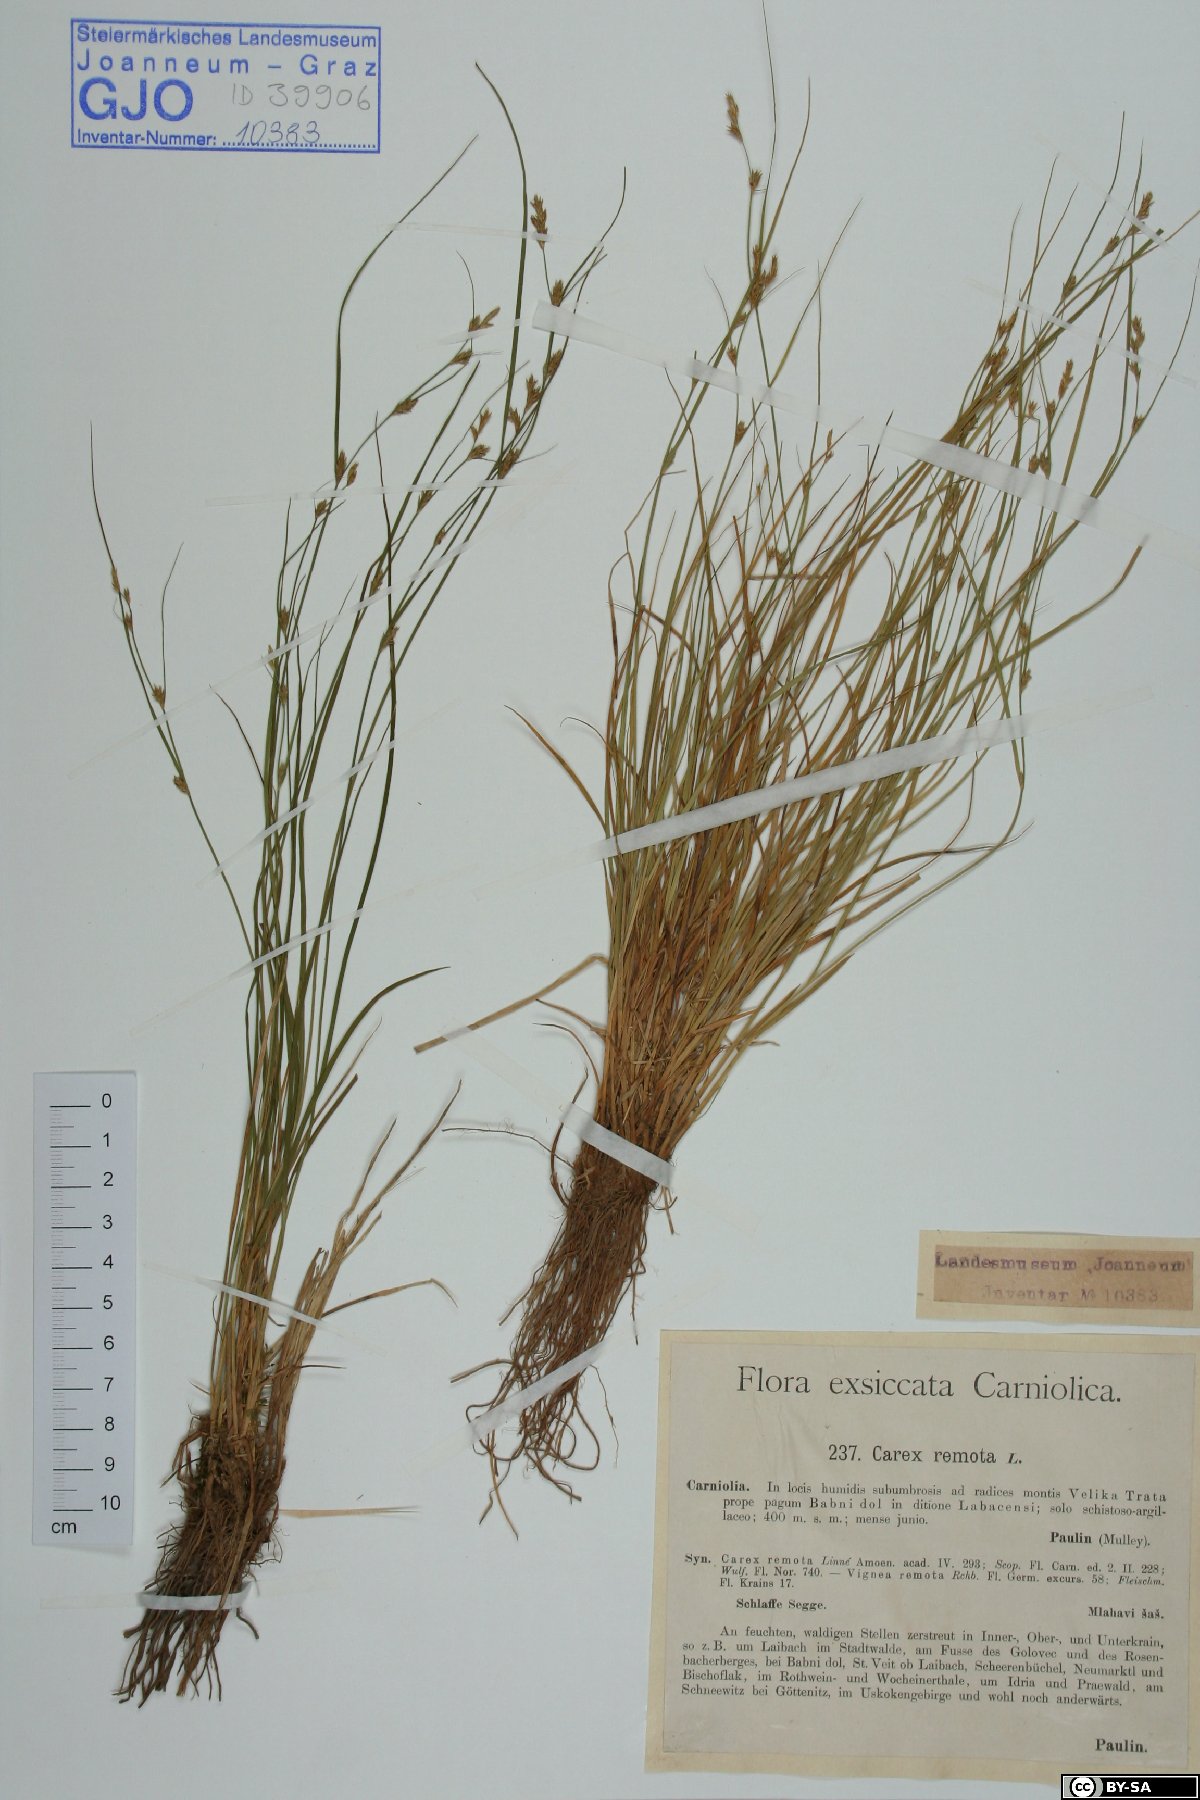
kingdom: Plantae
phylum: Tracheophyta
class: Liliopsida
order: Poales
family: Cyperaceae
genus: Carex
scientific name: Carex remota
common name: Remote sedge
